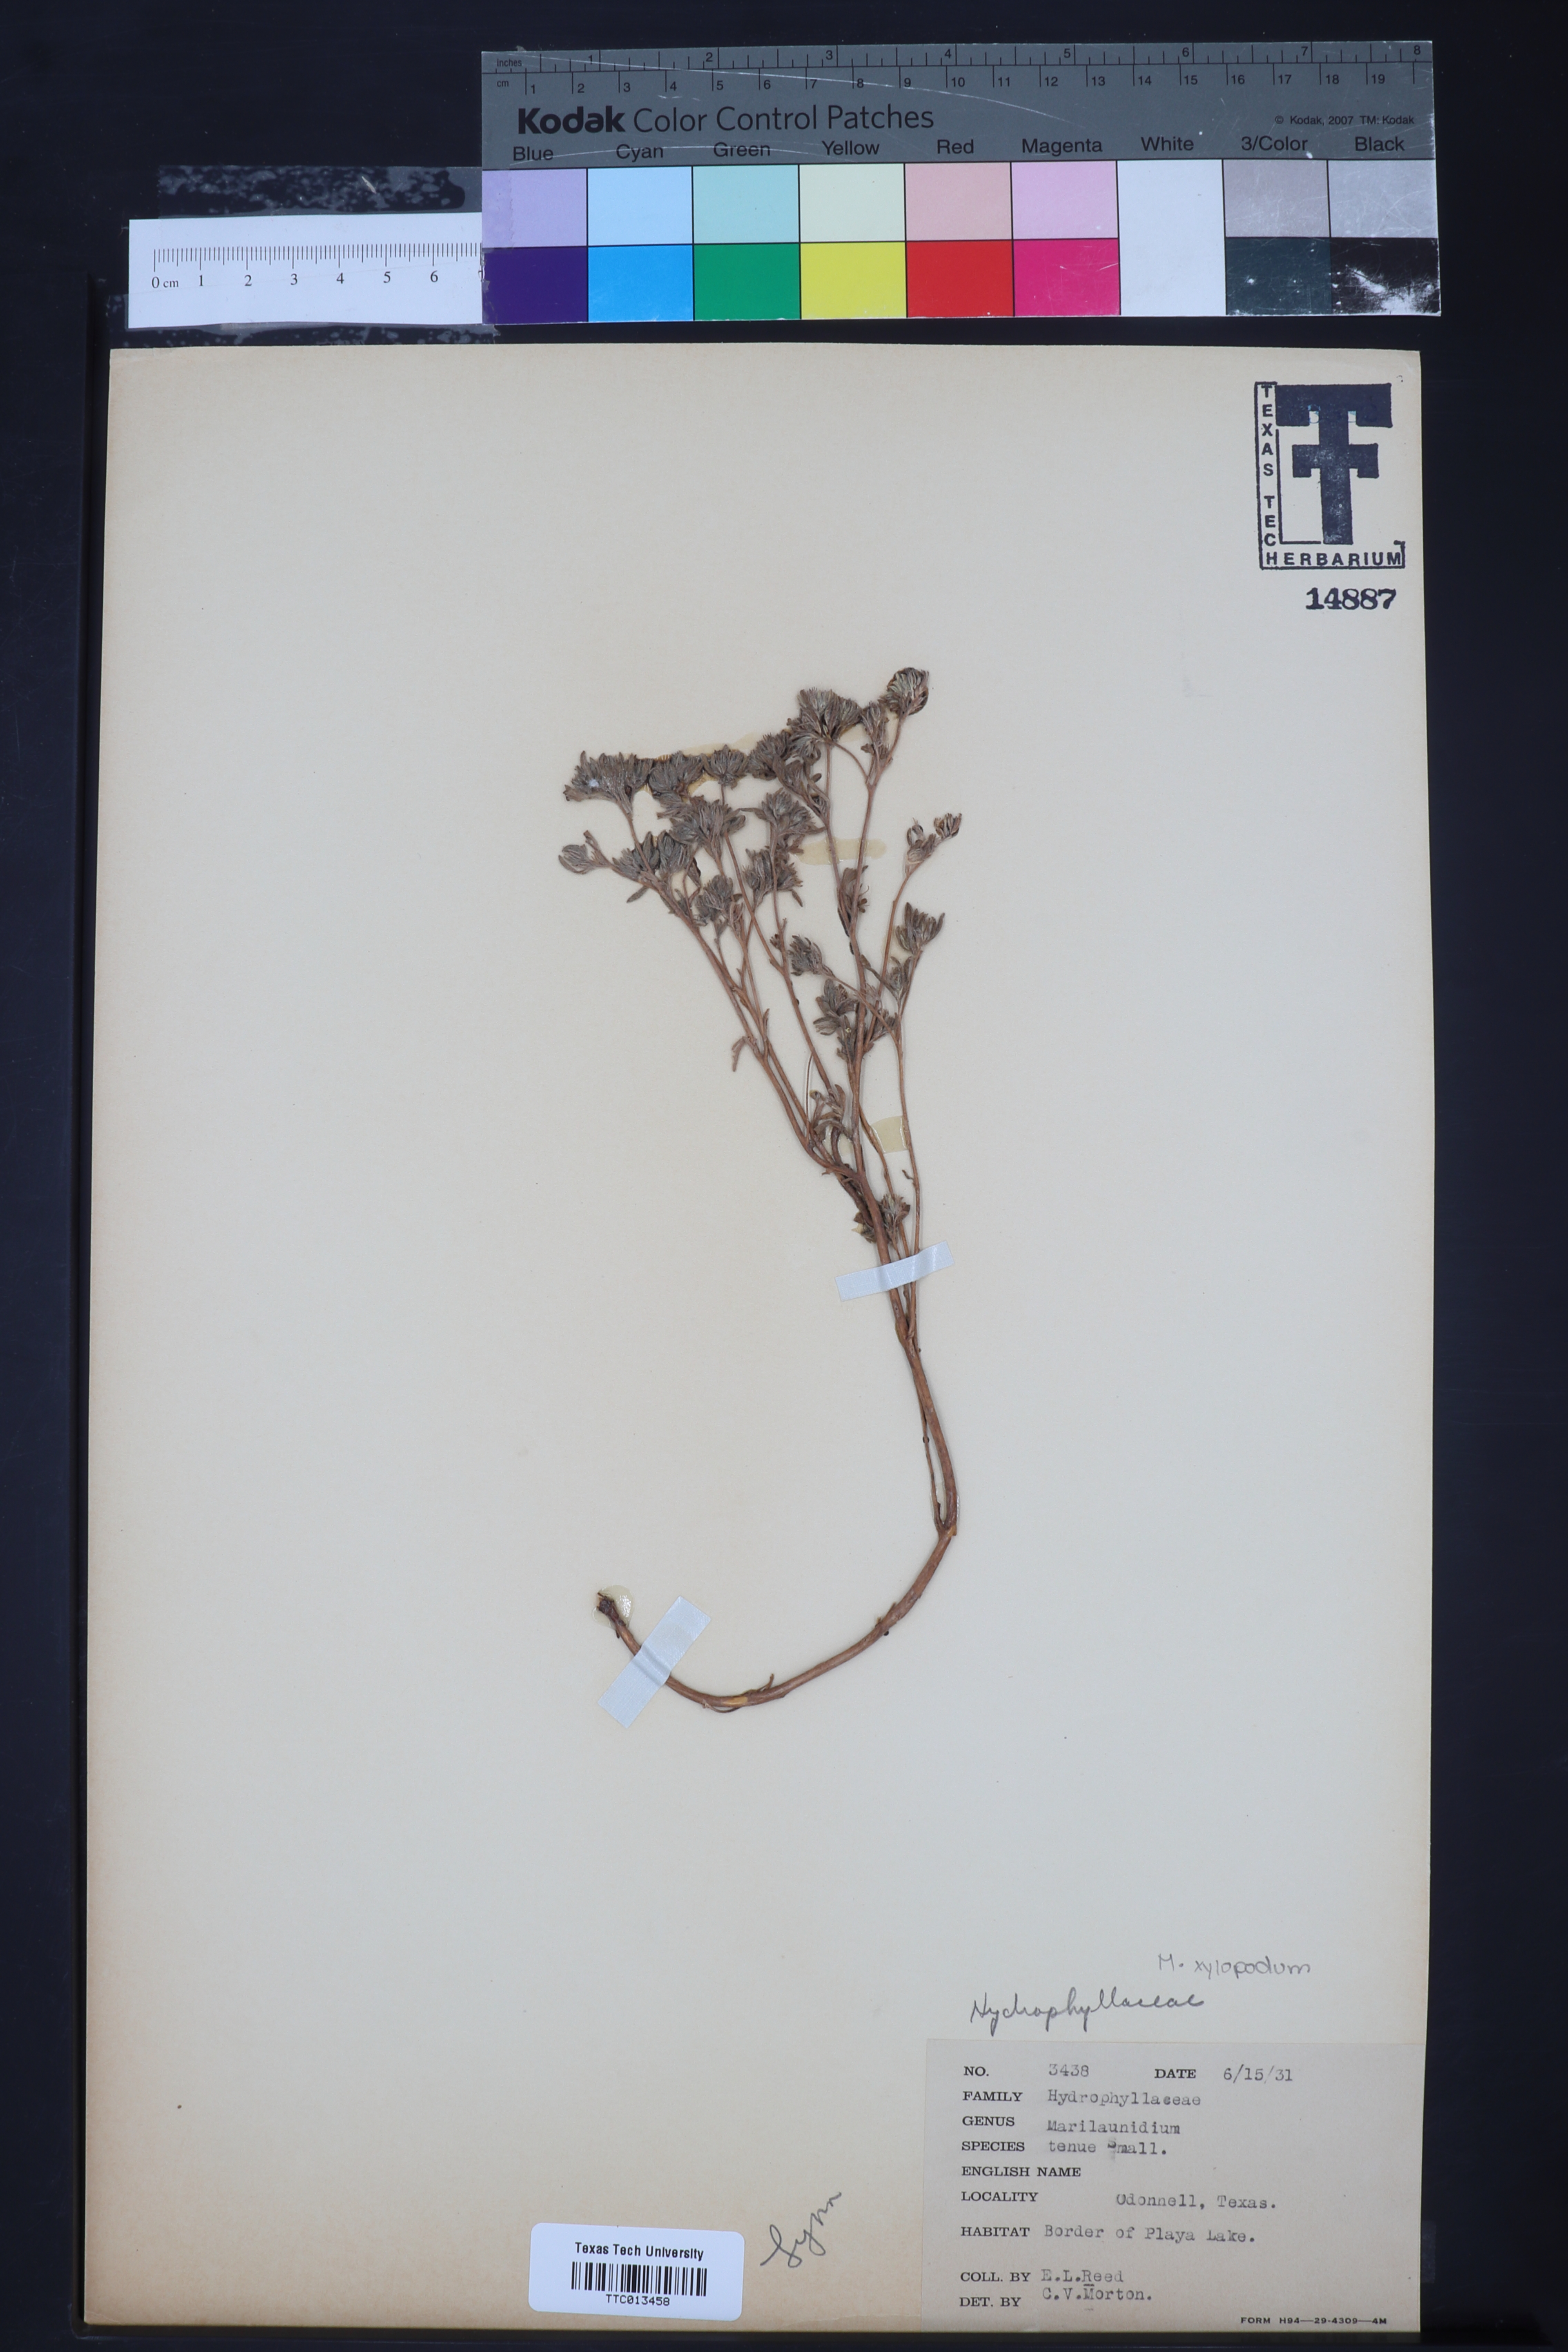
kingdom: Plantae
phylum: Tracheophyta
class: Magnoliopsida
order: Boraginales
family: Namaceae
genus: Nama
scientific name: Nama dichotoma
